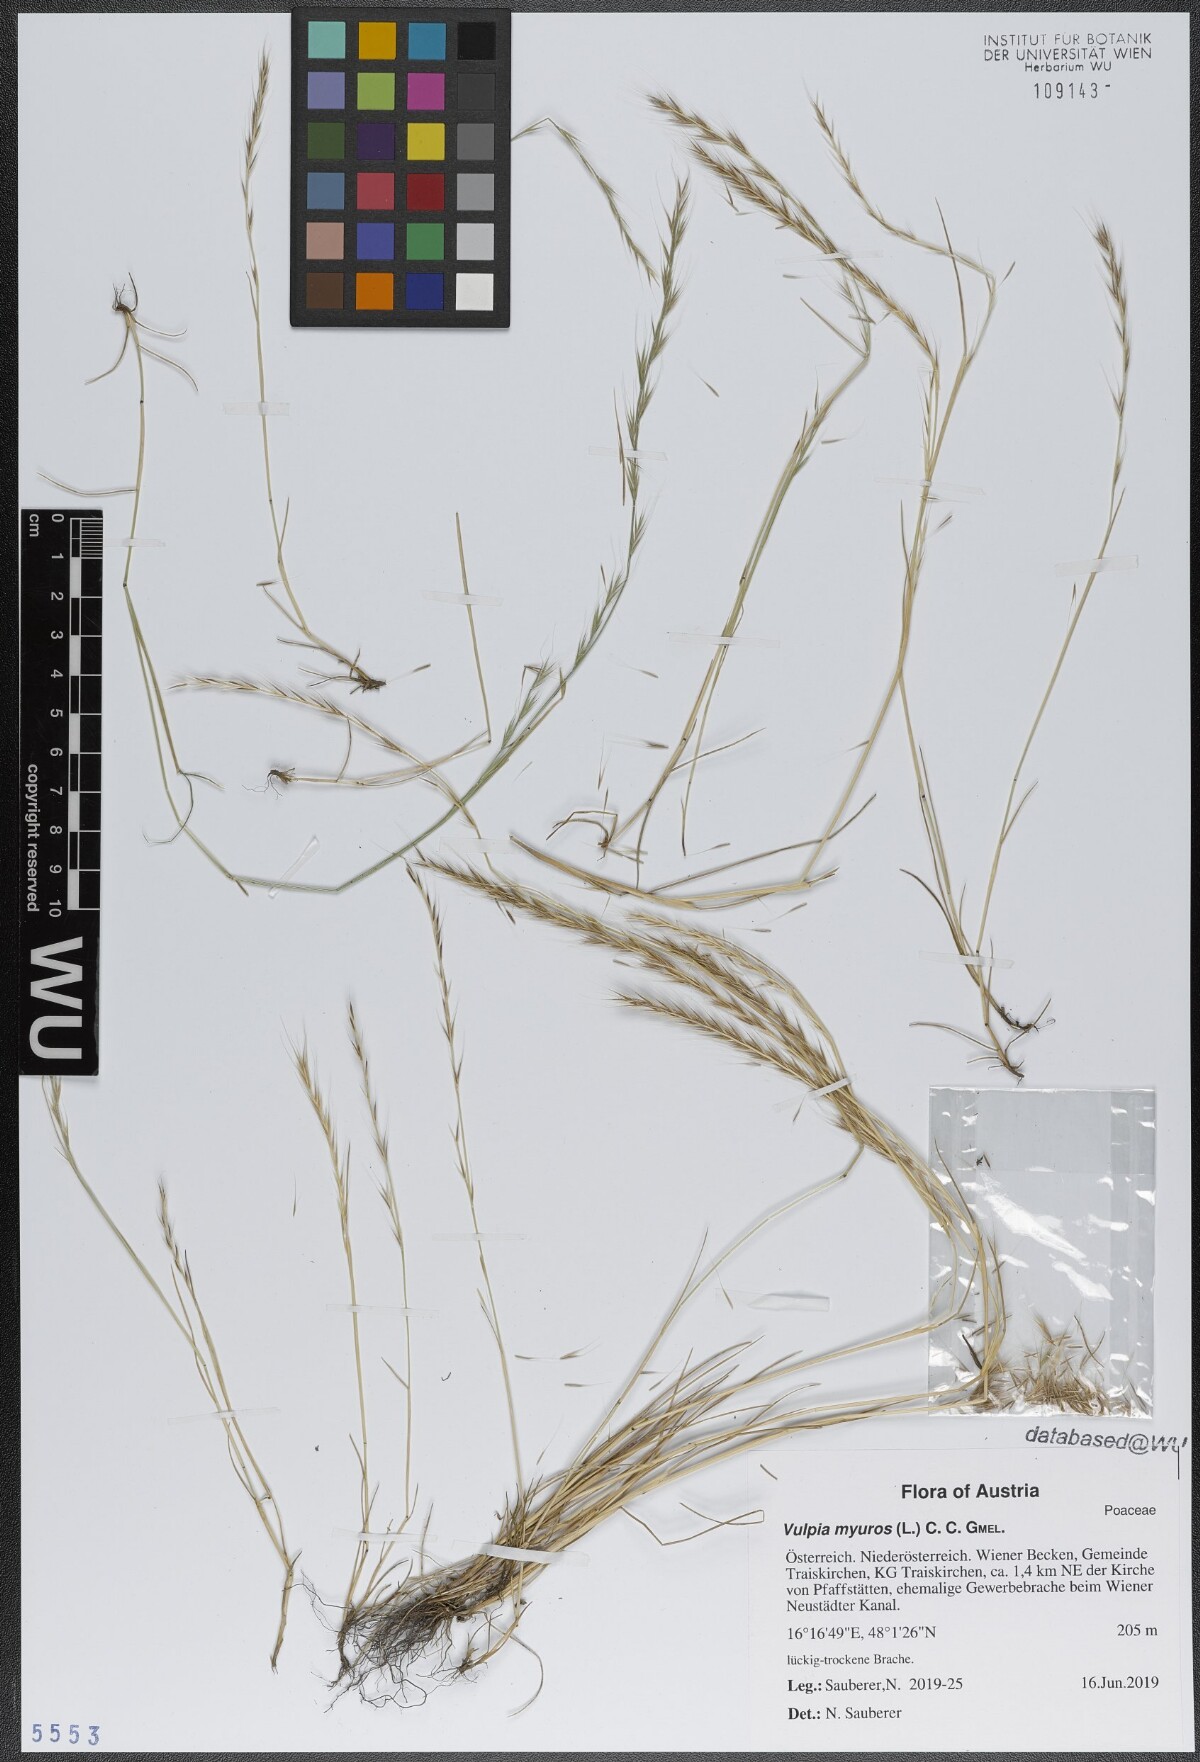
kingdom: Plantae
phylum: Tracheophyta
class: Liliopsida
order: Poales
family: Poaceae
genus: Festuca
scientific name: Festuca myuros
